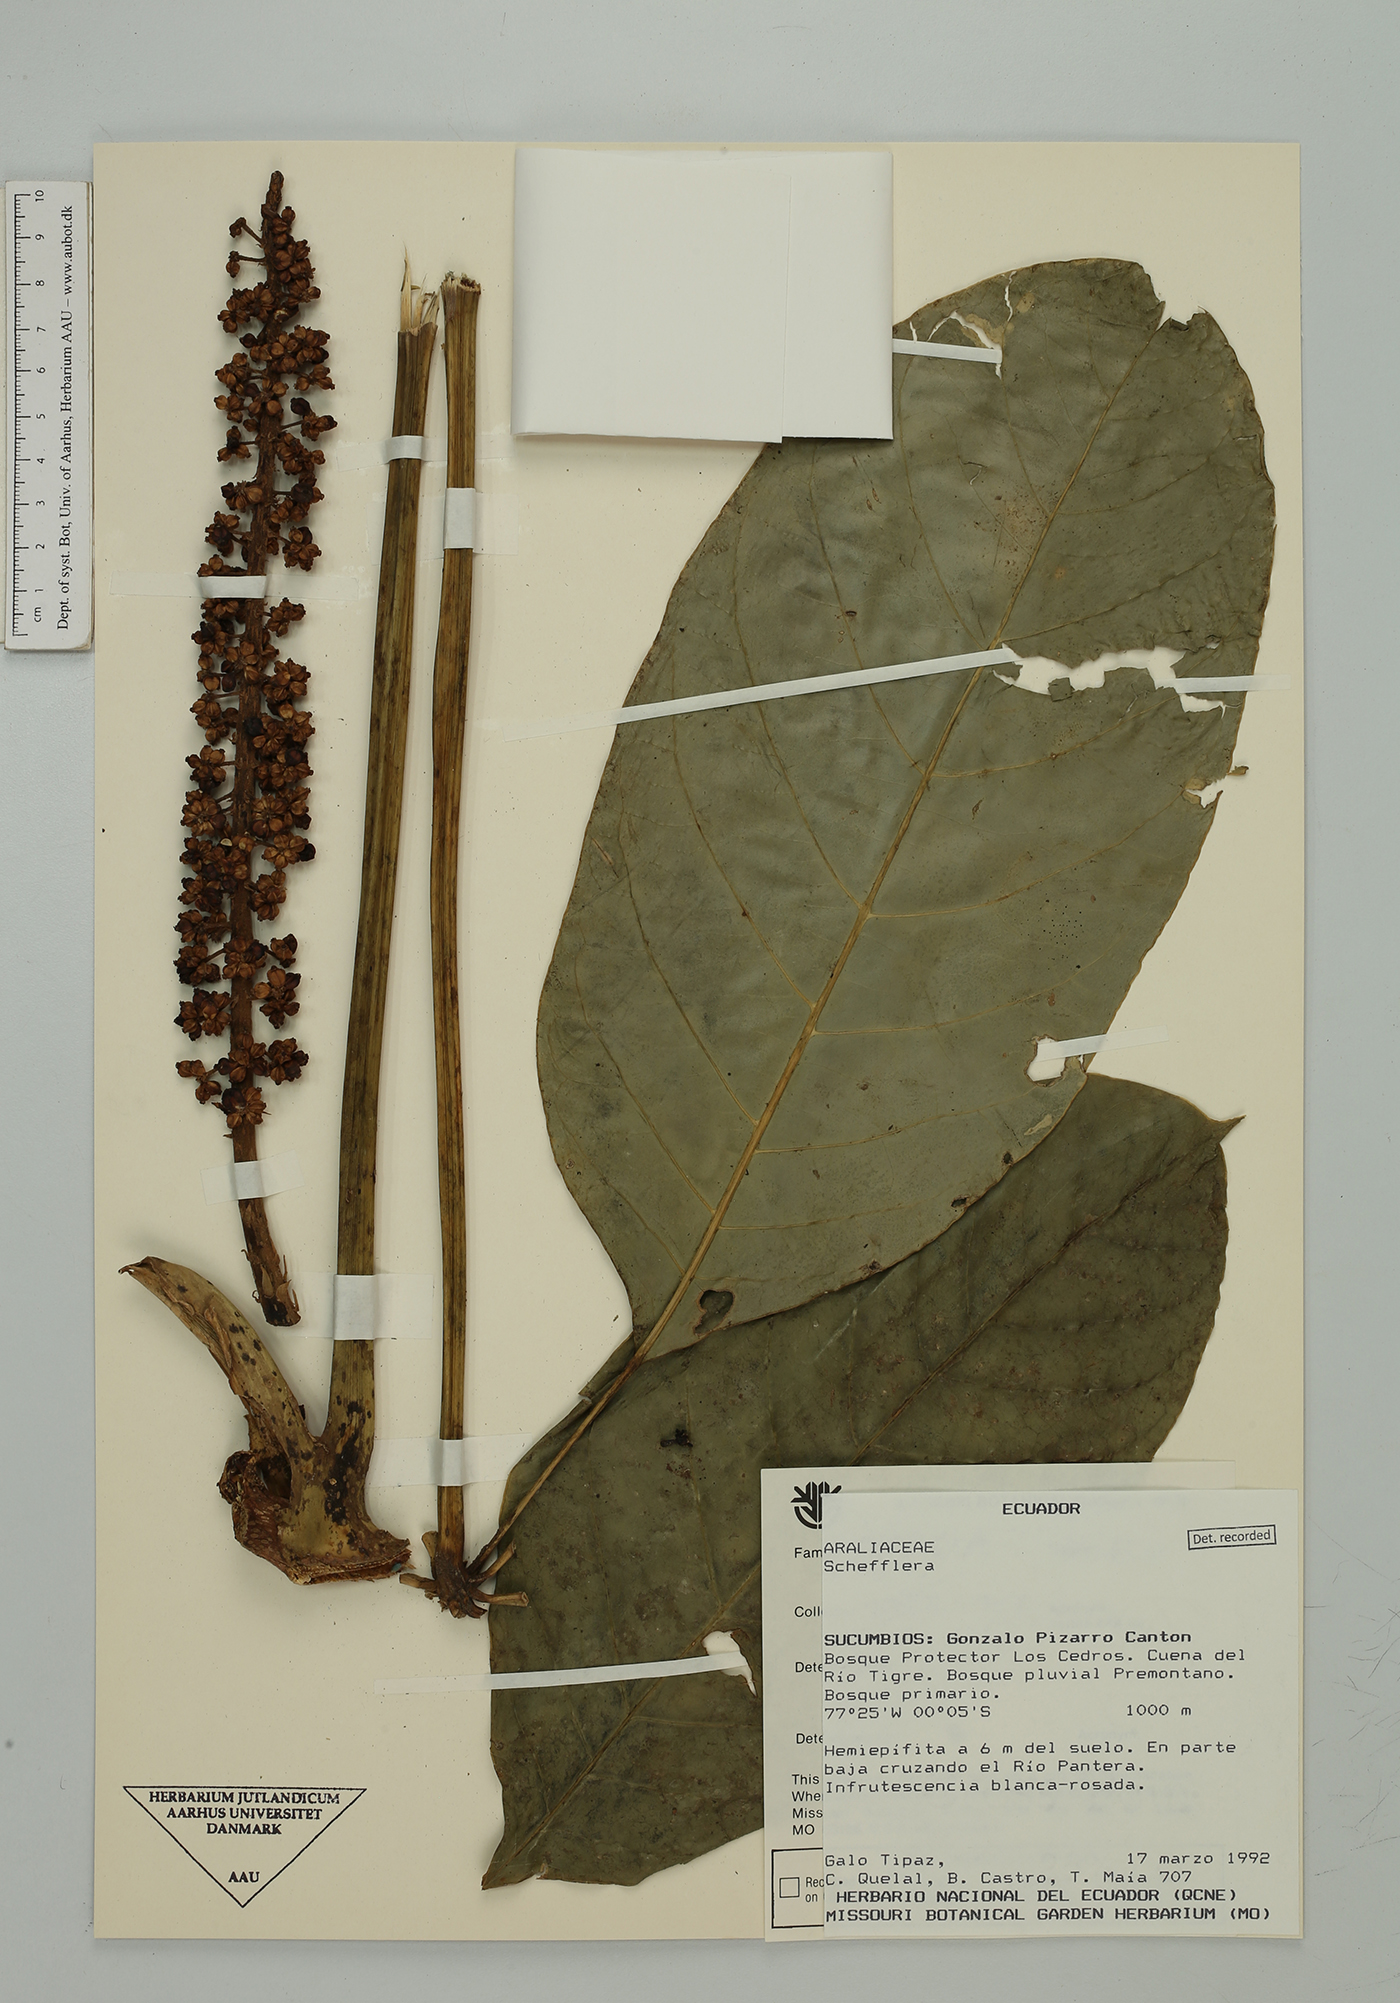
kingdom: Plantae
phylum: Tracheophyta
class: Magnoliopsida
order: Apiales
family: Araliaceae
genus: Sciodaphyllum
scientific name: Sciodaphyllum dielsii
